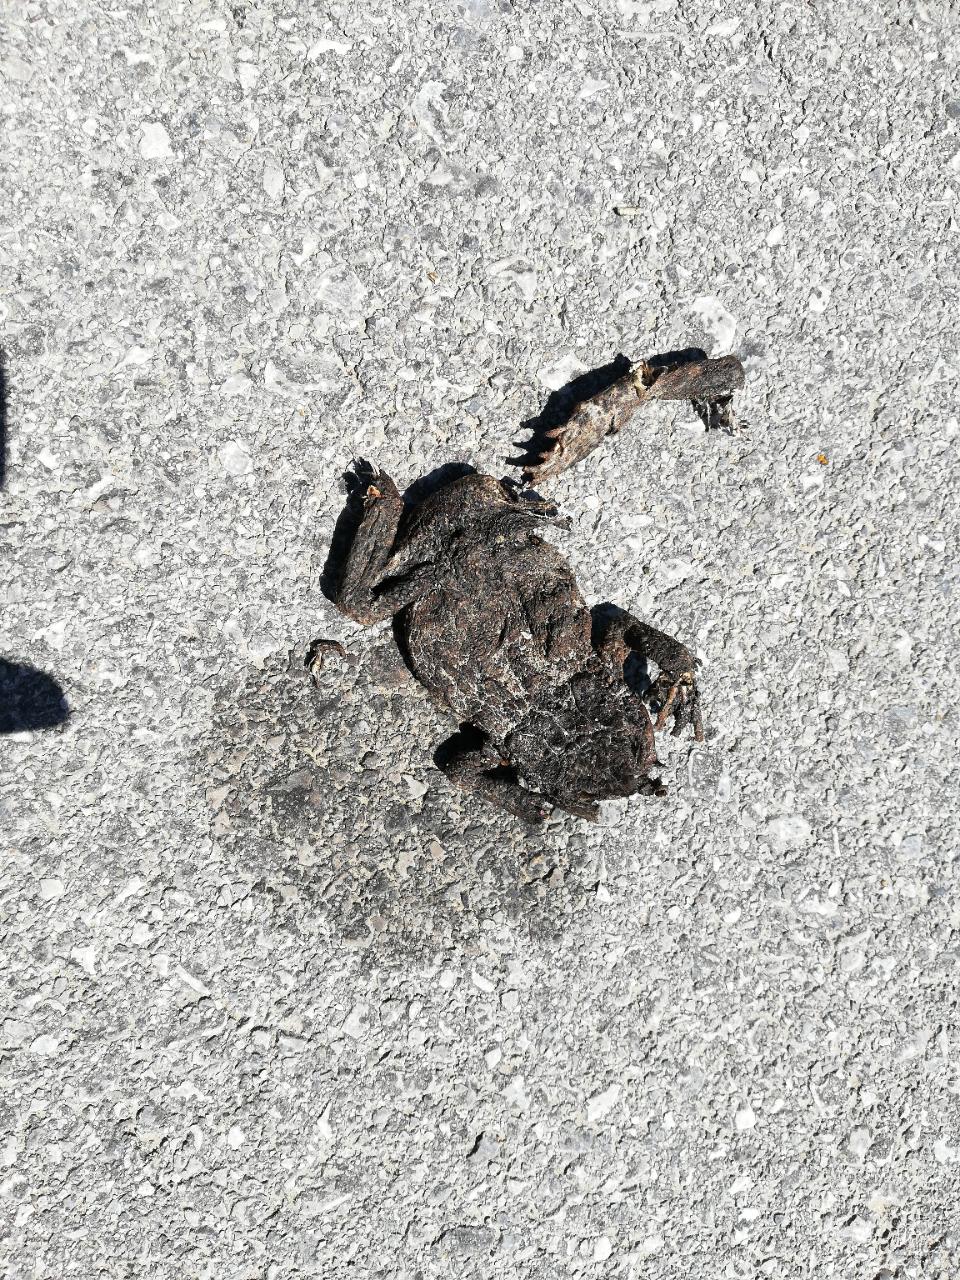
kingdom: Animalia
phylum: Chordata
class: Amphibia
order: Anura
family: Bufonidae
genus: Bufo
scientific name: Bufo bufo
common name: Common toad
